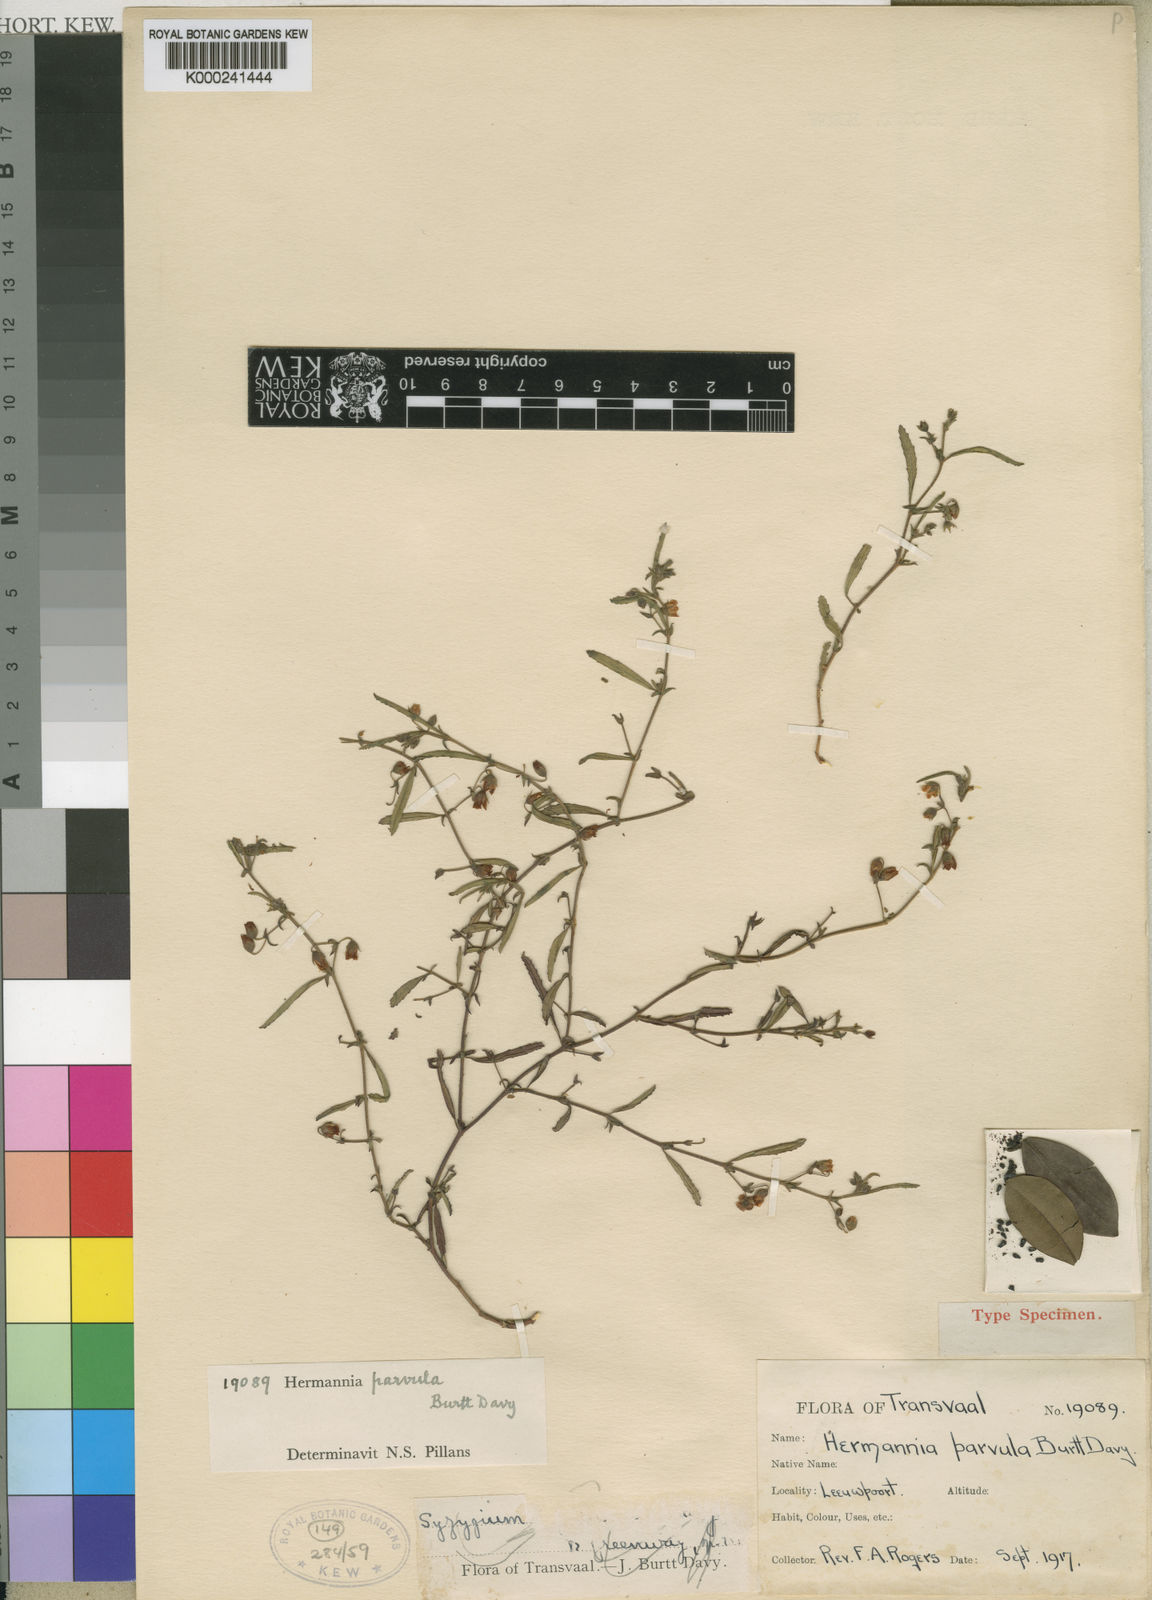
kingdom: Plantae
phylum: Tracheophyta
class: Magnoliopsida
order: Malvales
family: Malvaceae
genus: Hermannia
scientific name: Hermannia parvula
